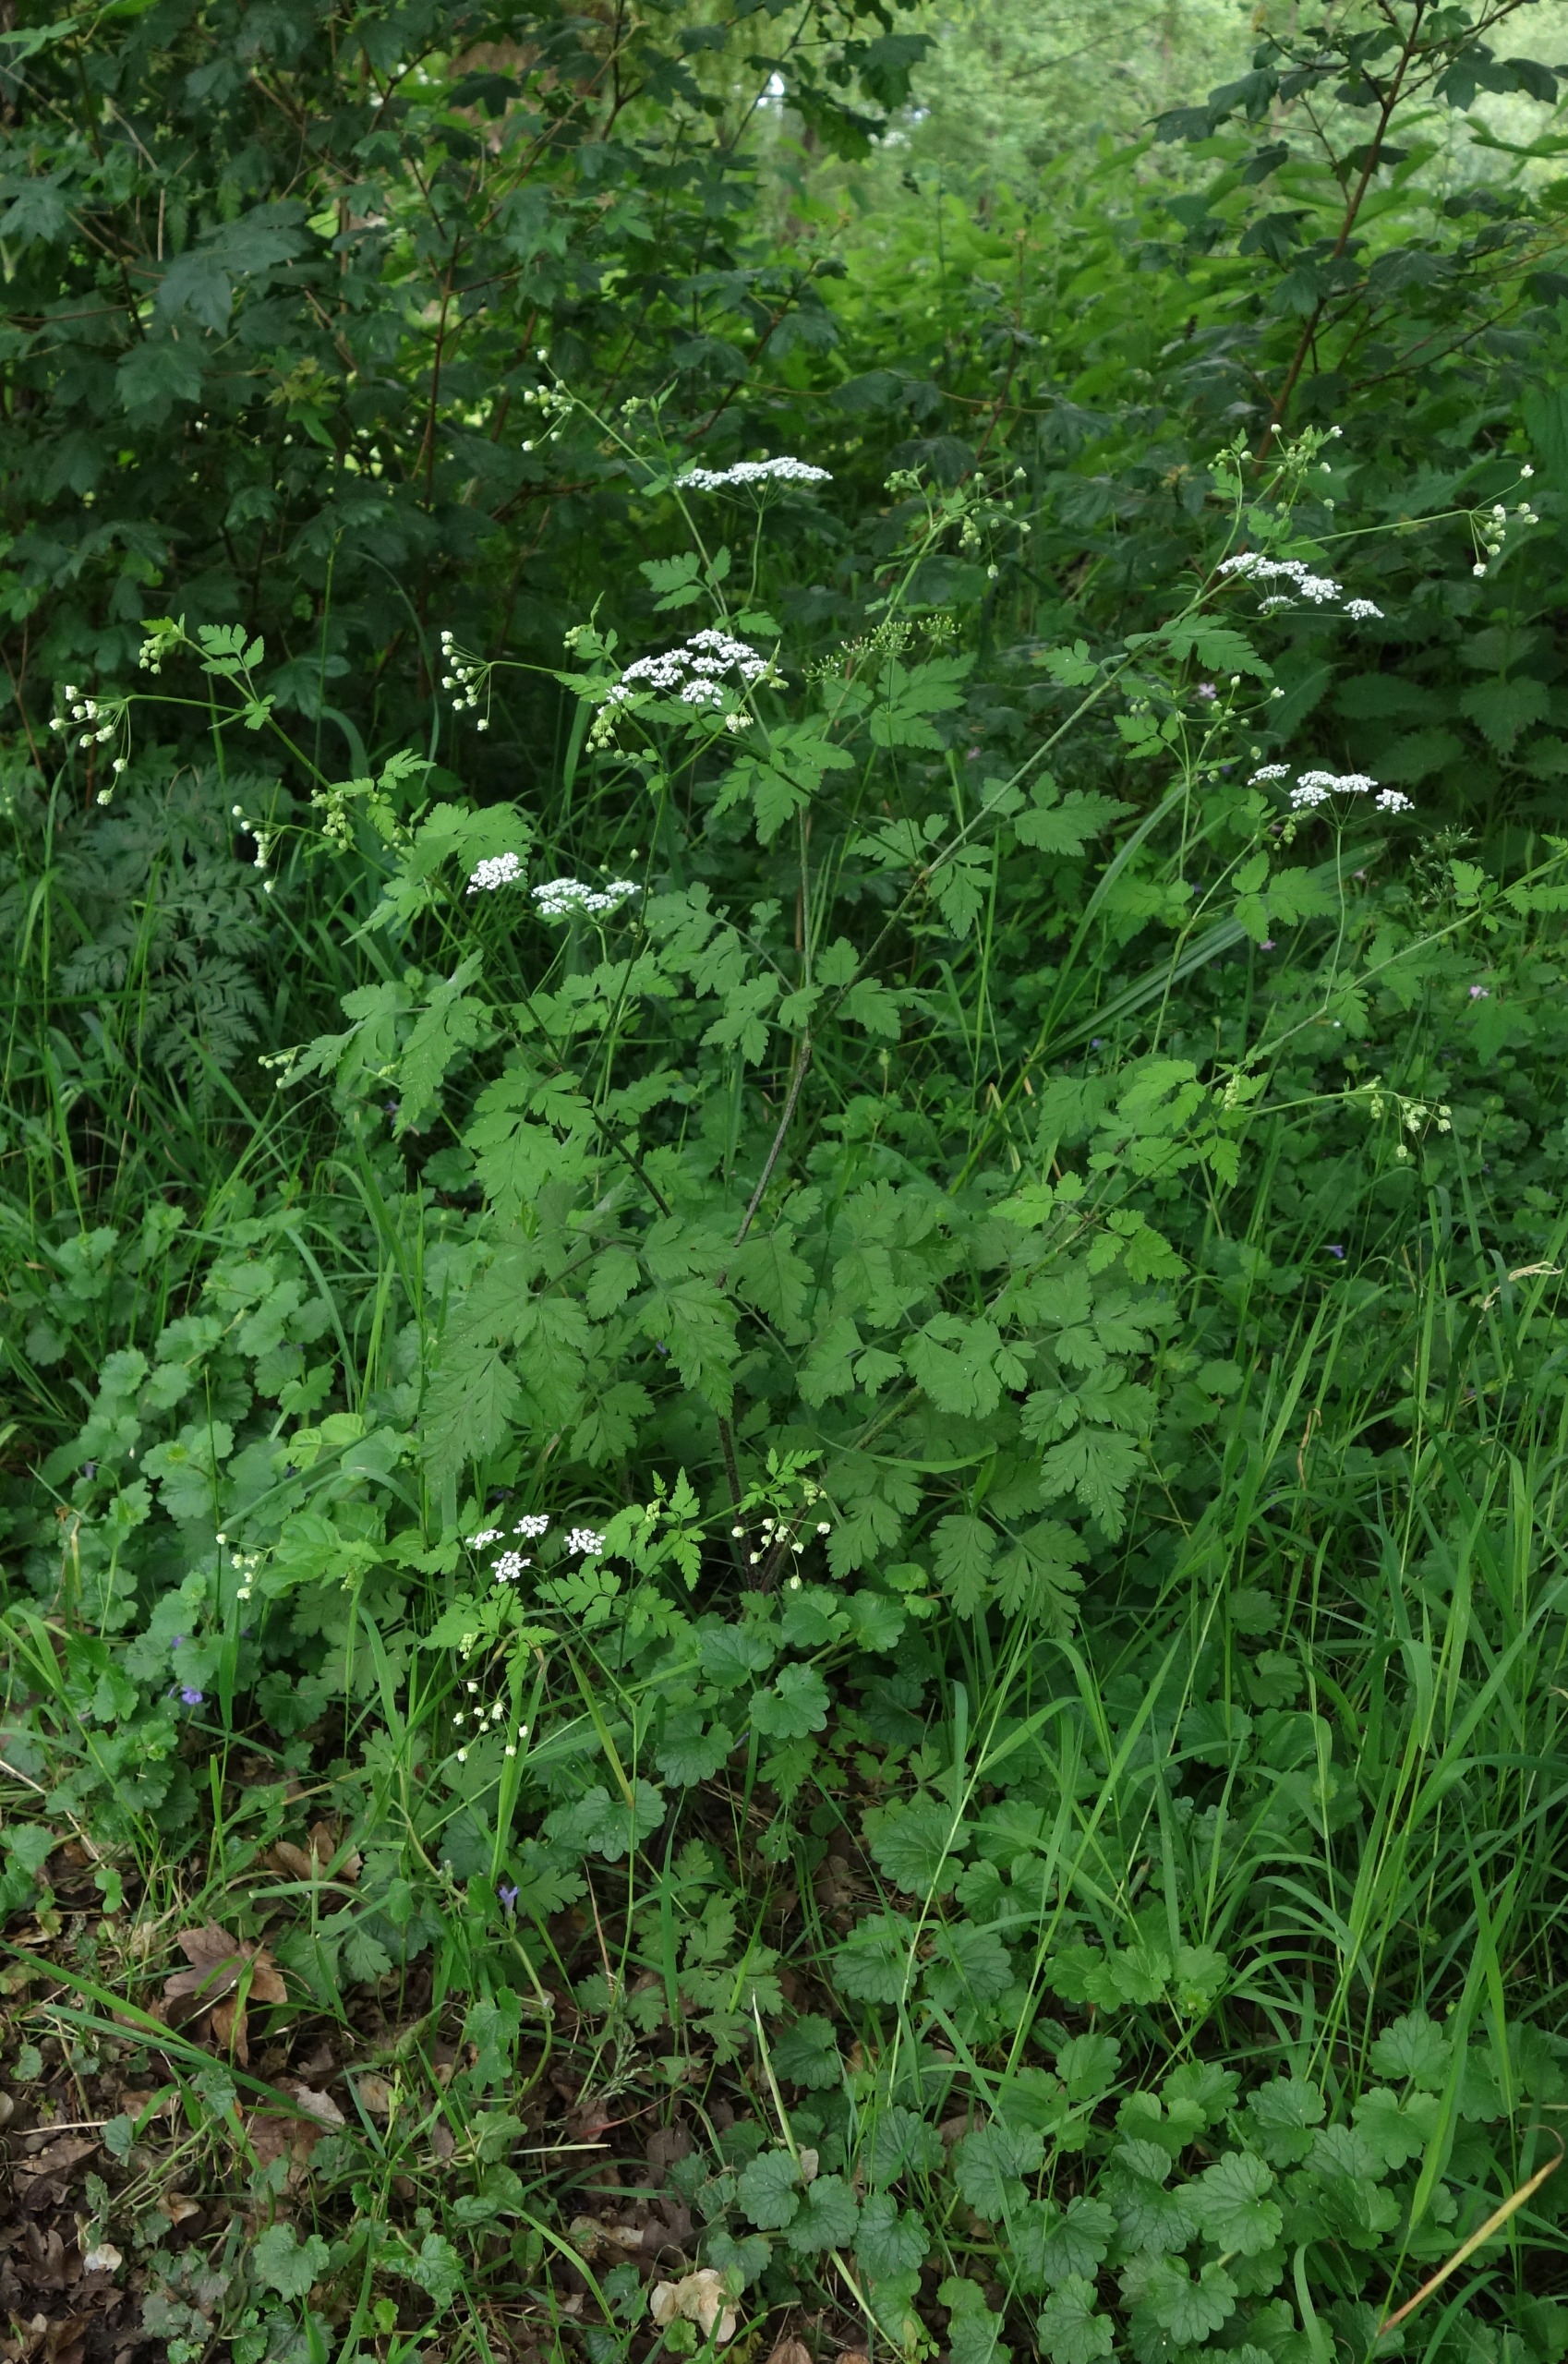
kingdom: Plantae
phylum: Tracheophyta
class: Magnoliopsida
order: Apiales
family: Apiaceae
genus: Chaerophyllum
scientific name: Chaerophyllum temulum
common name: Almindelig hulsvøb
